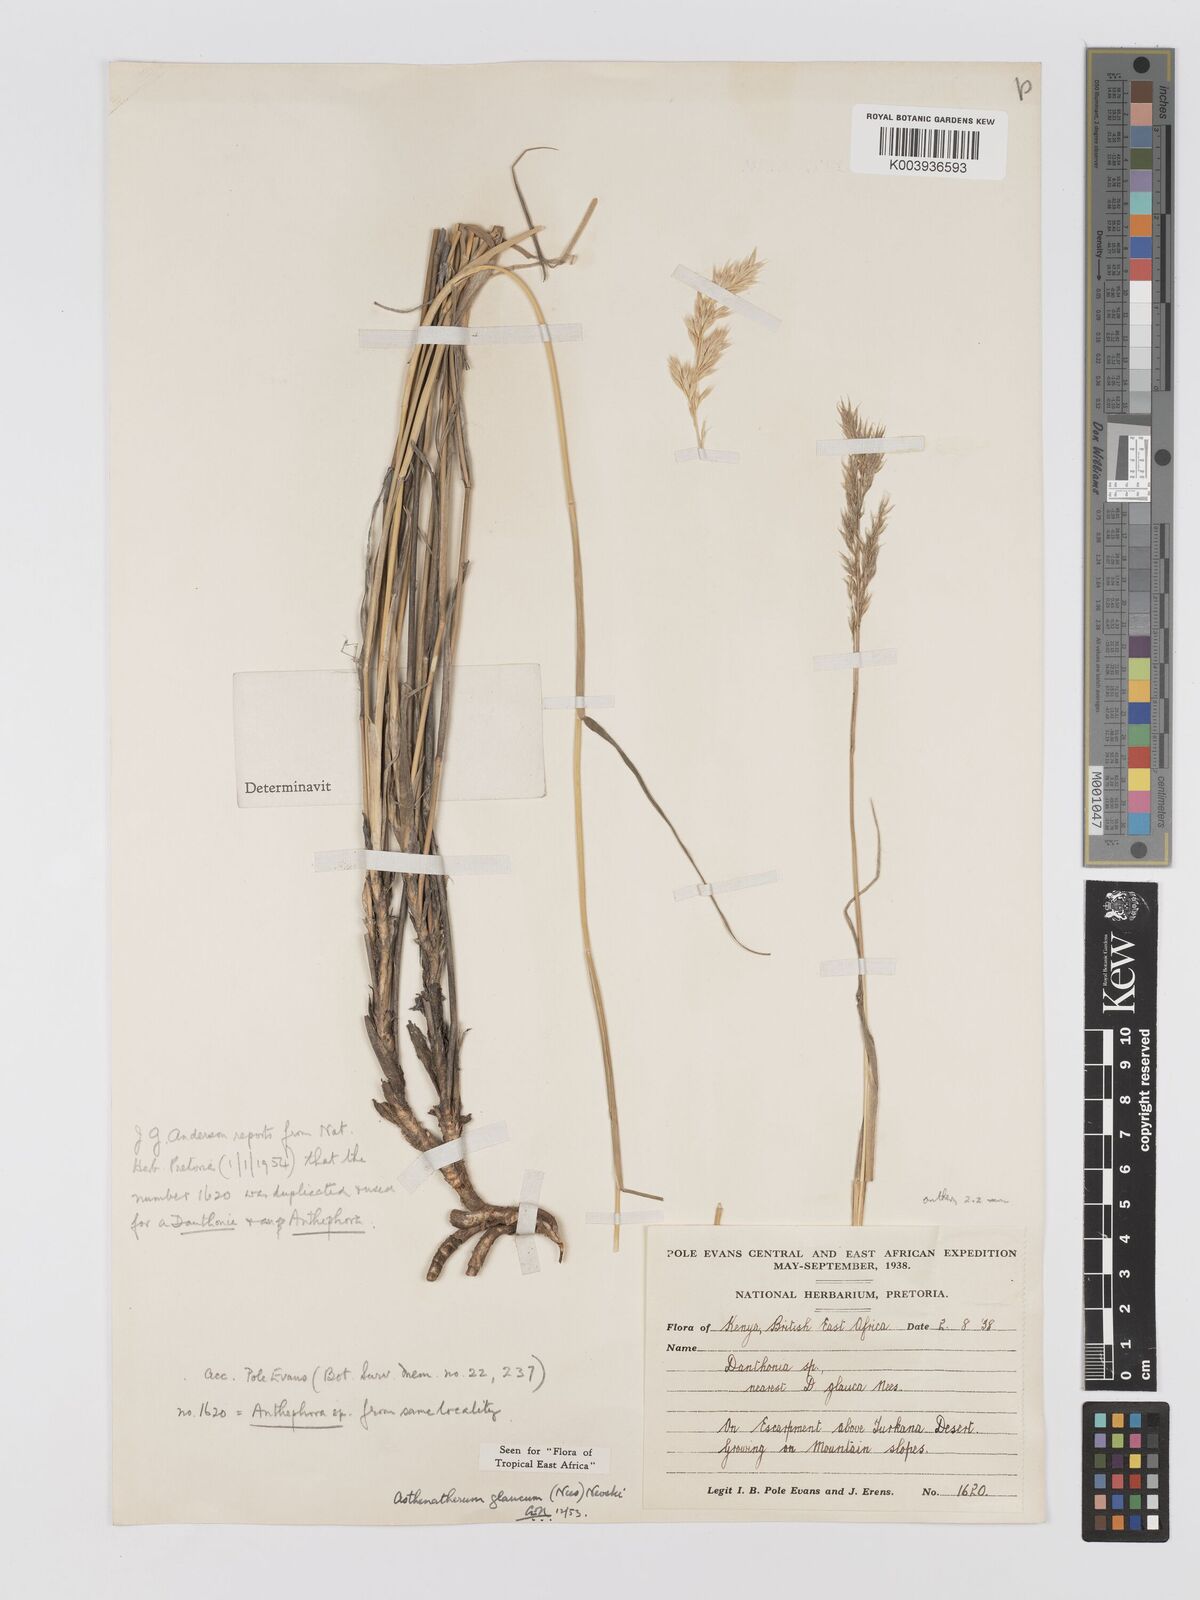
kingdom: Plantae
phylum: Tracheophyta
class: Liliopsida
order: Poales
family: Poaceae
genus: Centropodia
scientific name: Centropodia glauca
